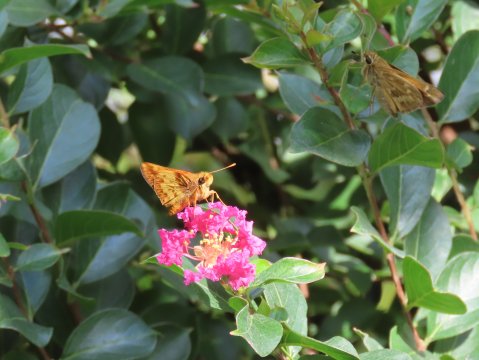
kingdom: Animalia
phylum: Arthropoda
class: Insecta
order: Lepidoptera
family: Hesperiidae
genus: Lon
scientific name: Lon zabulon
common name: Zabulon Skipper
